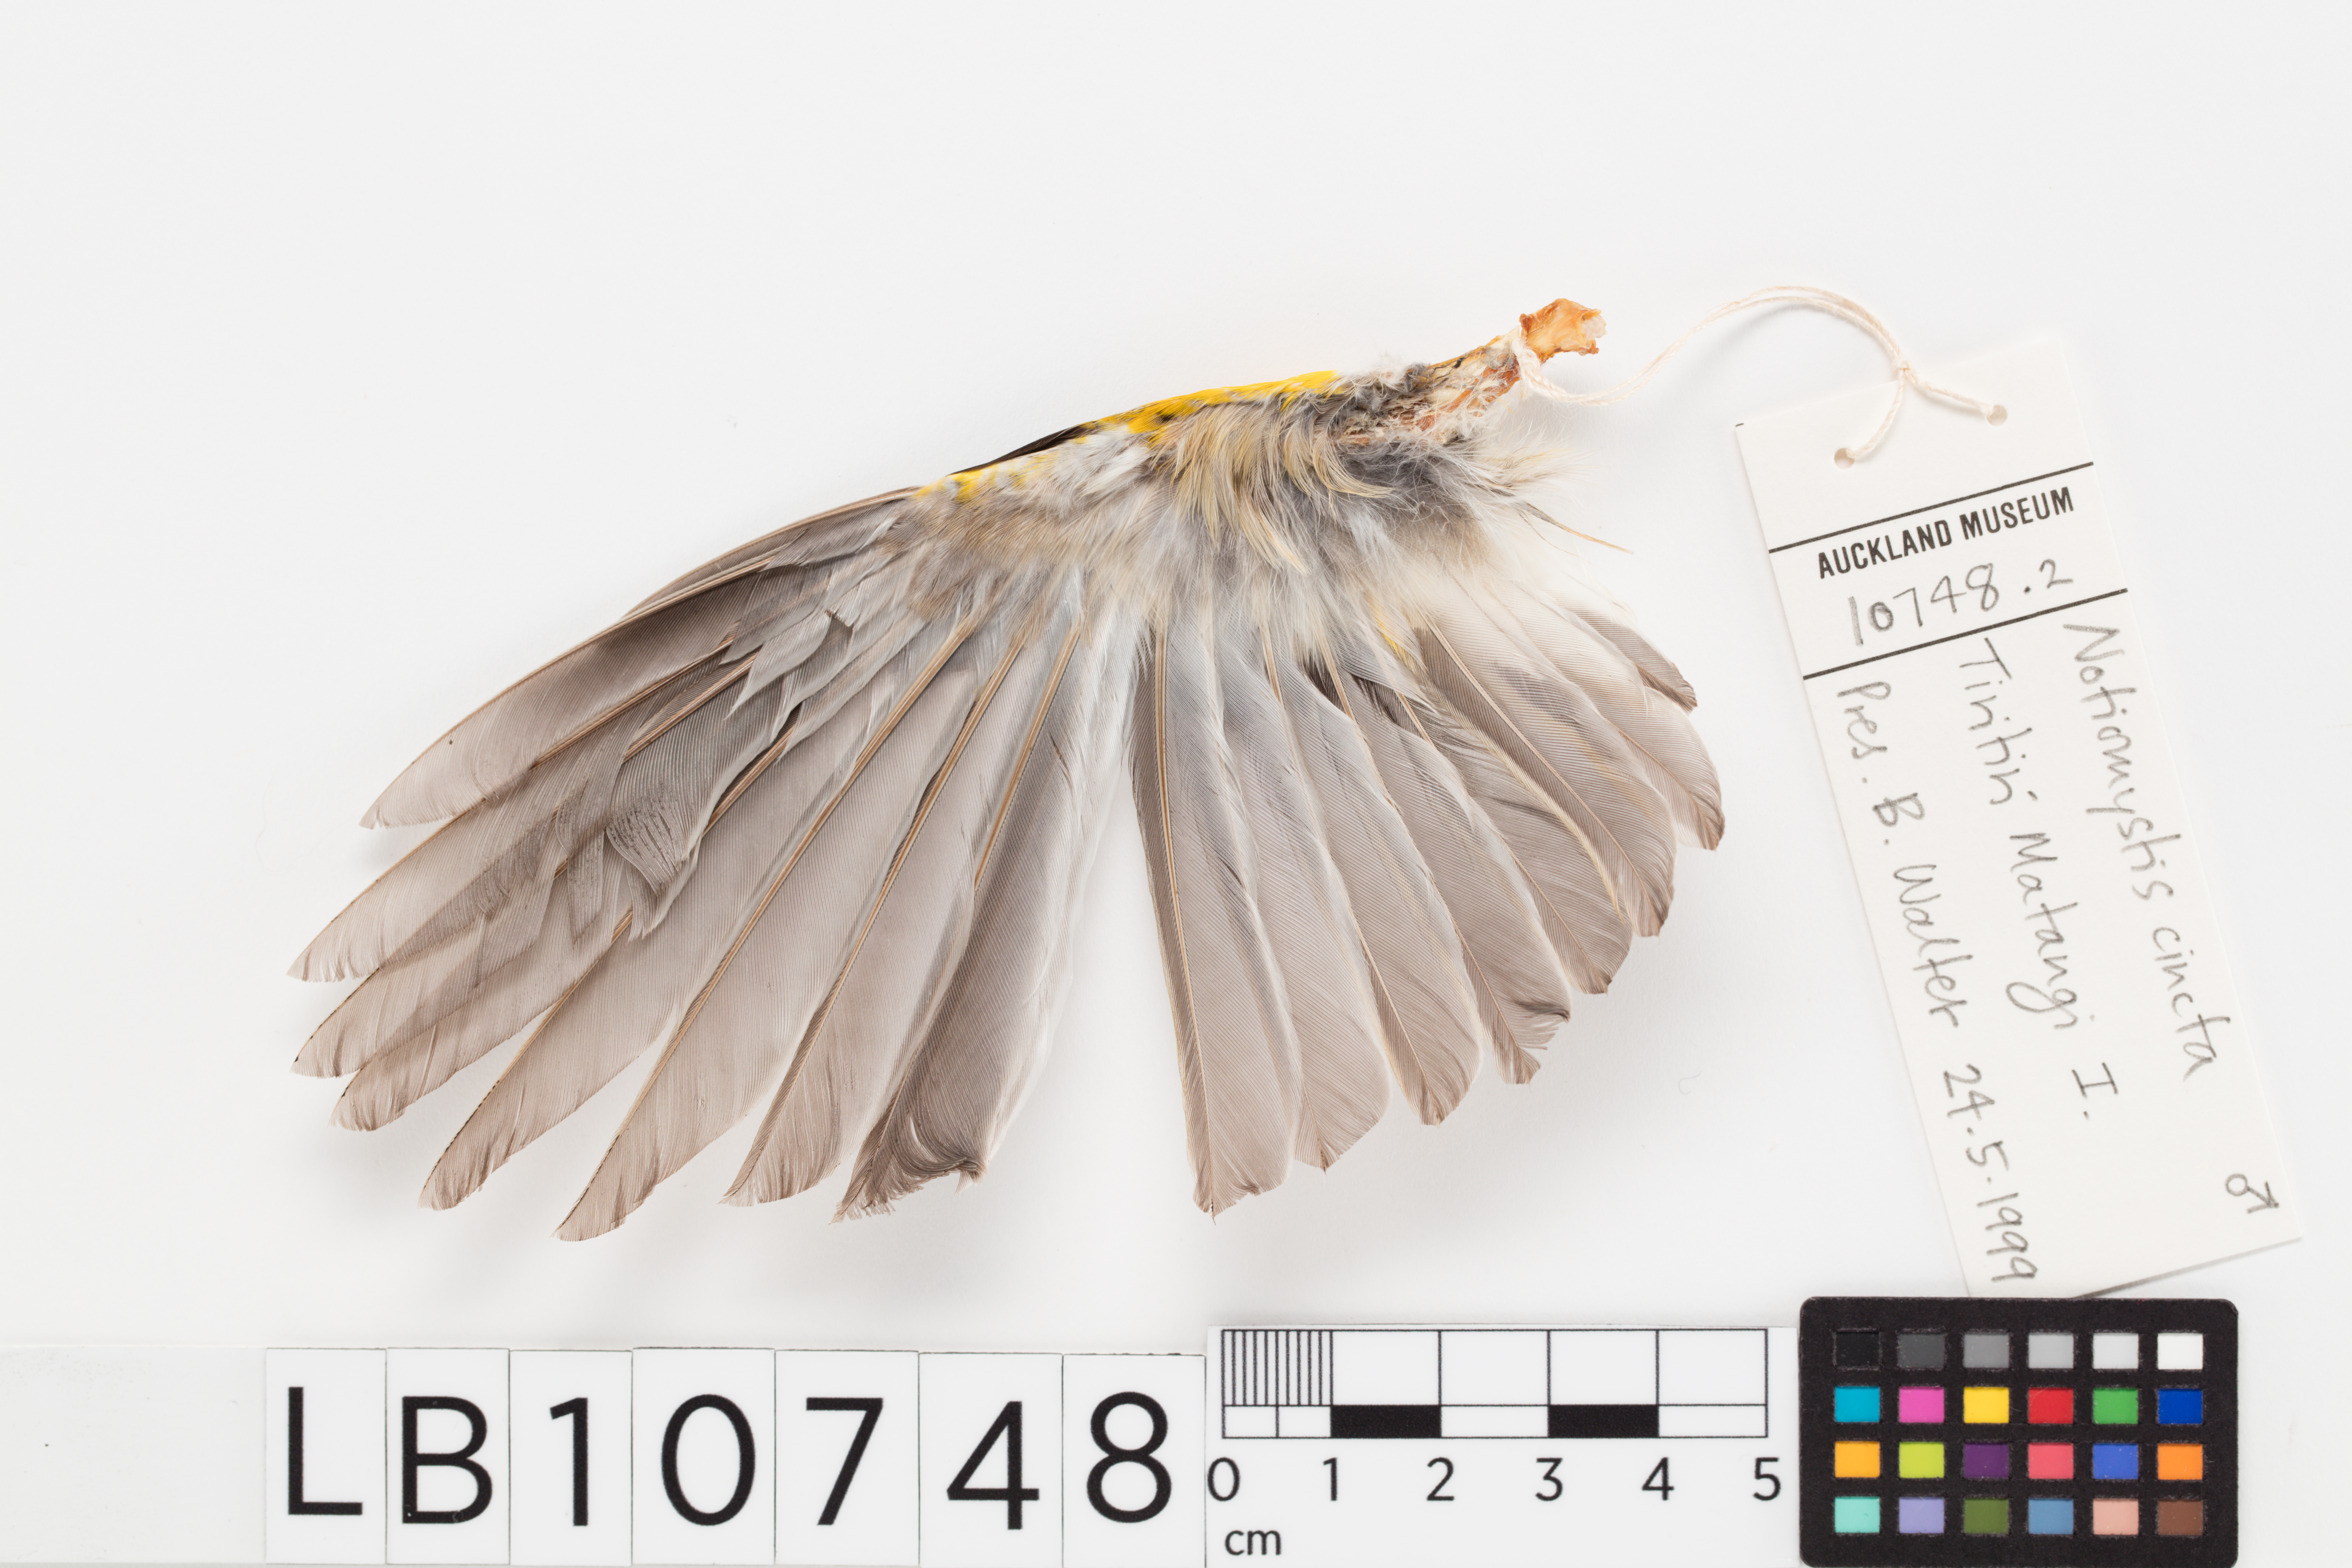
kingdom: Animalia
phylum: Chordata
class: Aves
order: Passeriformes
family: Notiomystidae
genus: Notiomystis
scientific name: Notiomystis cincta
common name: Stitchbird
